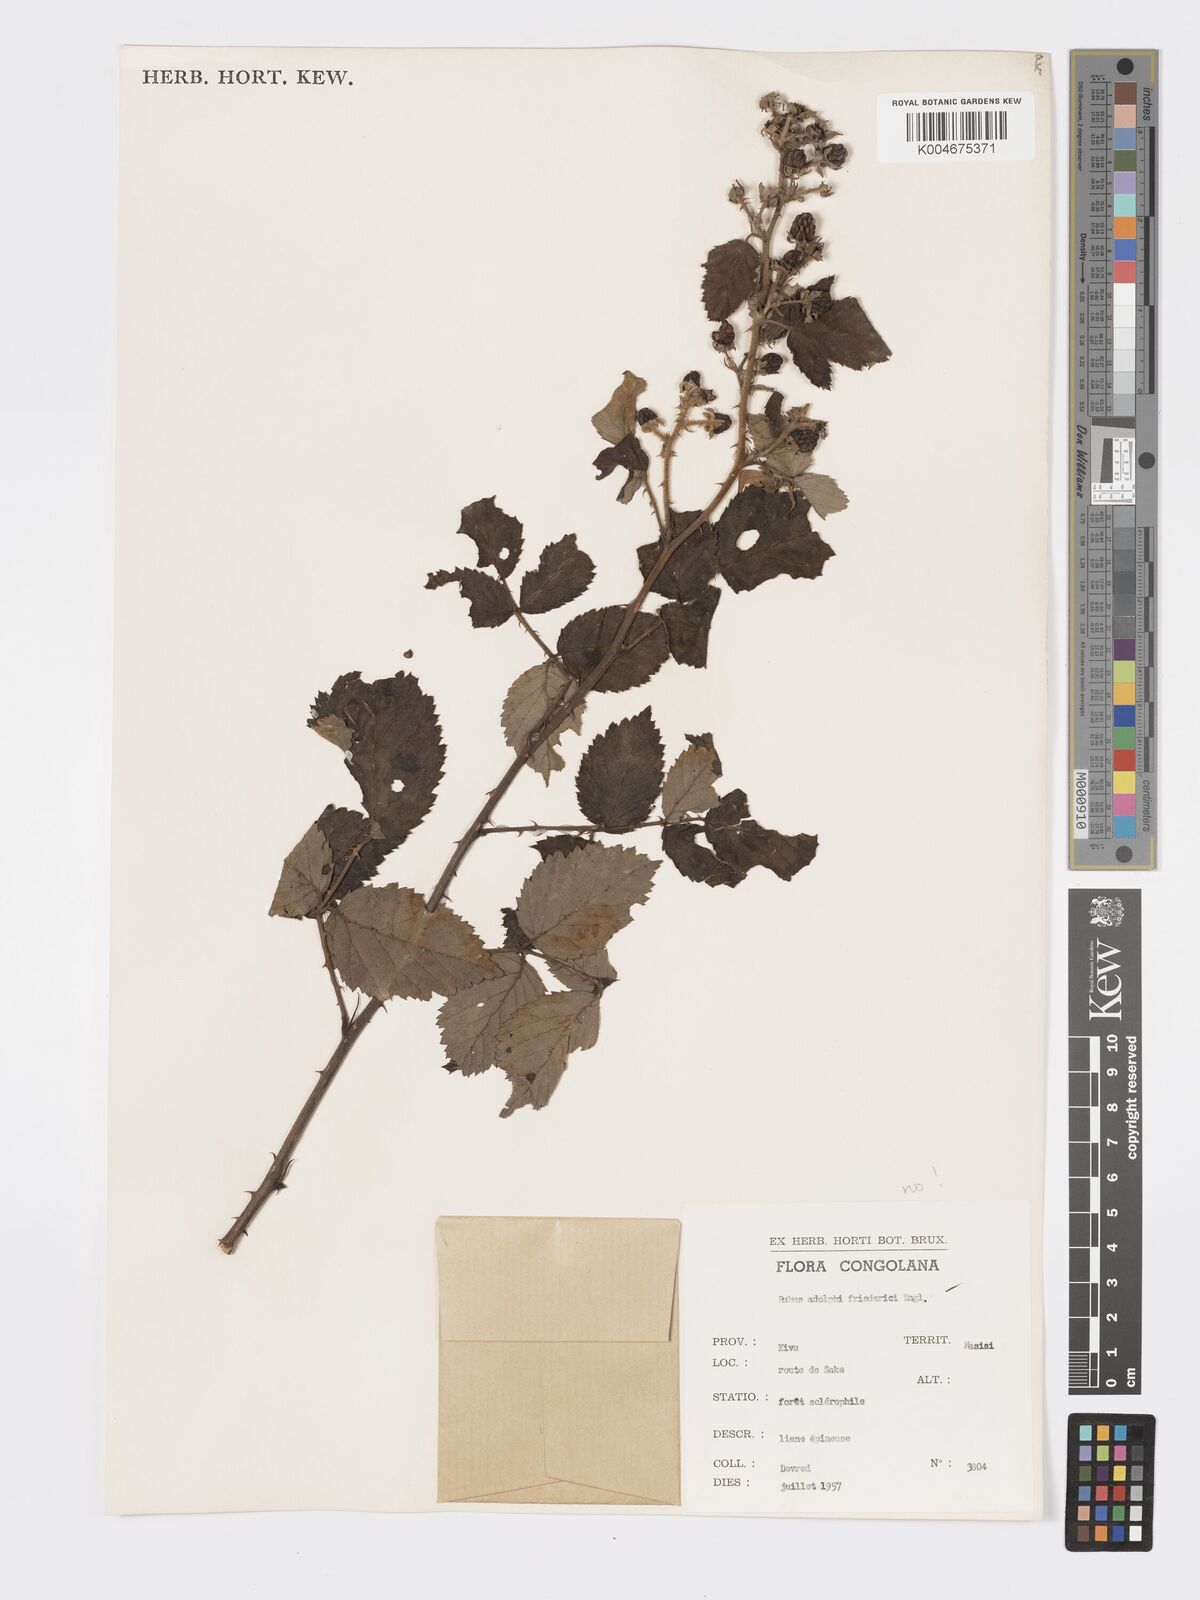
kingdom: Plantae
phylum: Tracheophyta
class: Magnoliopsida
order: Rosales
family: Rosaceae
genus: Rubus
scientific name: Rubus apetalus
